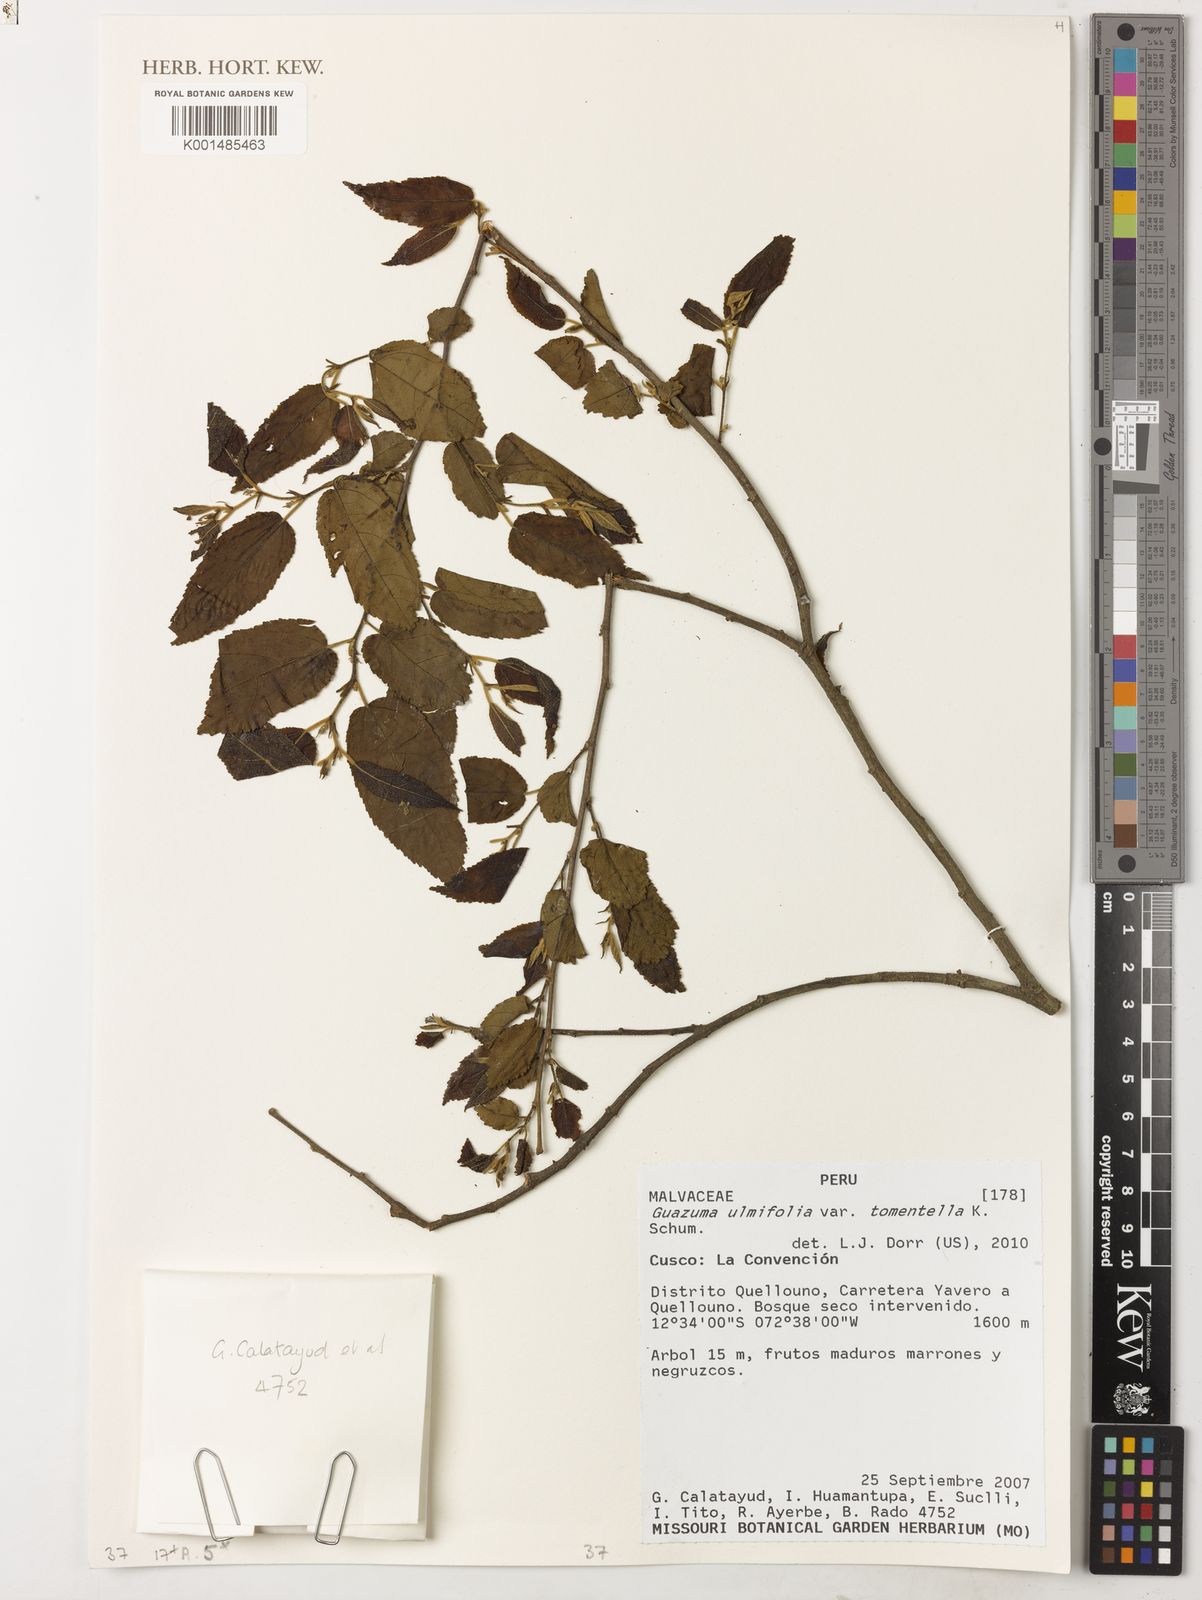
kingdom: Plantae
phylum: Tracheophyta
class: Magnoliopsida
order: Malvales
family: Malvaceae
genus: Guazuma
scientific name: Guazuma invira
